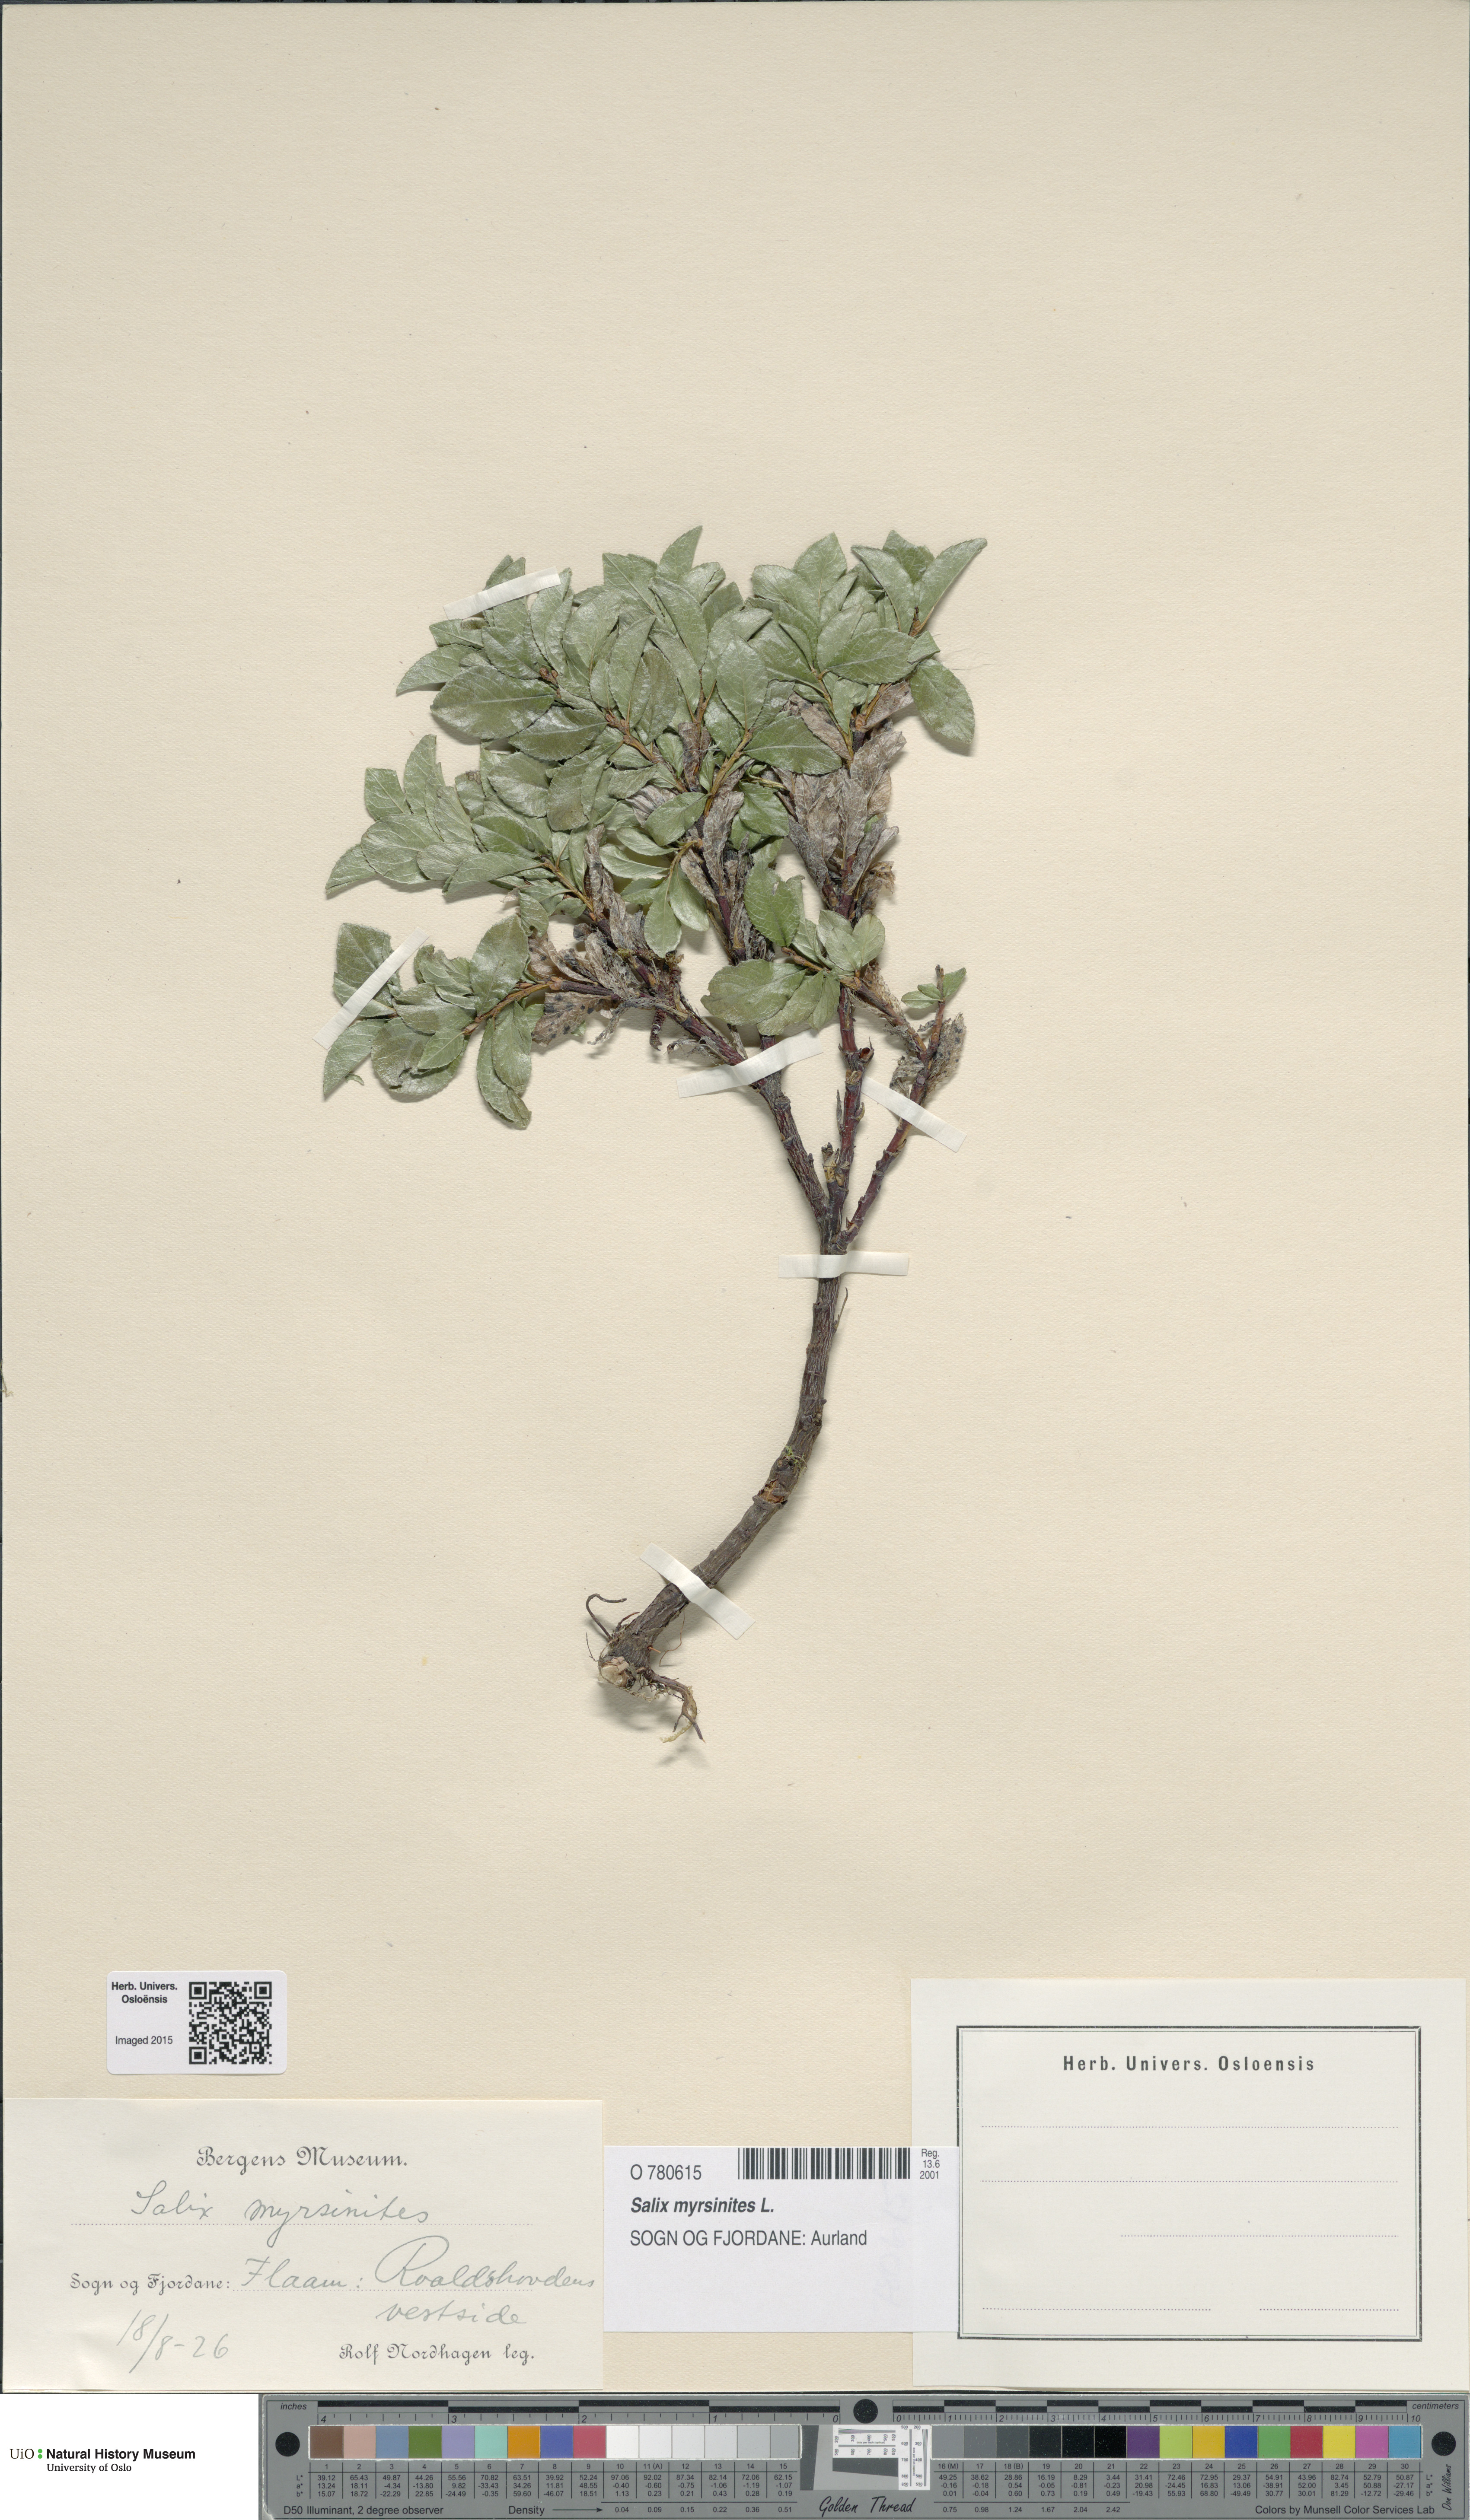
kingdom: Plantae
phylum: Tracheophyta
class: Magnoliopsida
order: Malpighiales
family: Salicaceae
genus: Salix
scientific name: Salix myrsinites
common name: Myrtle willow
